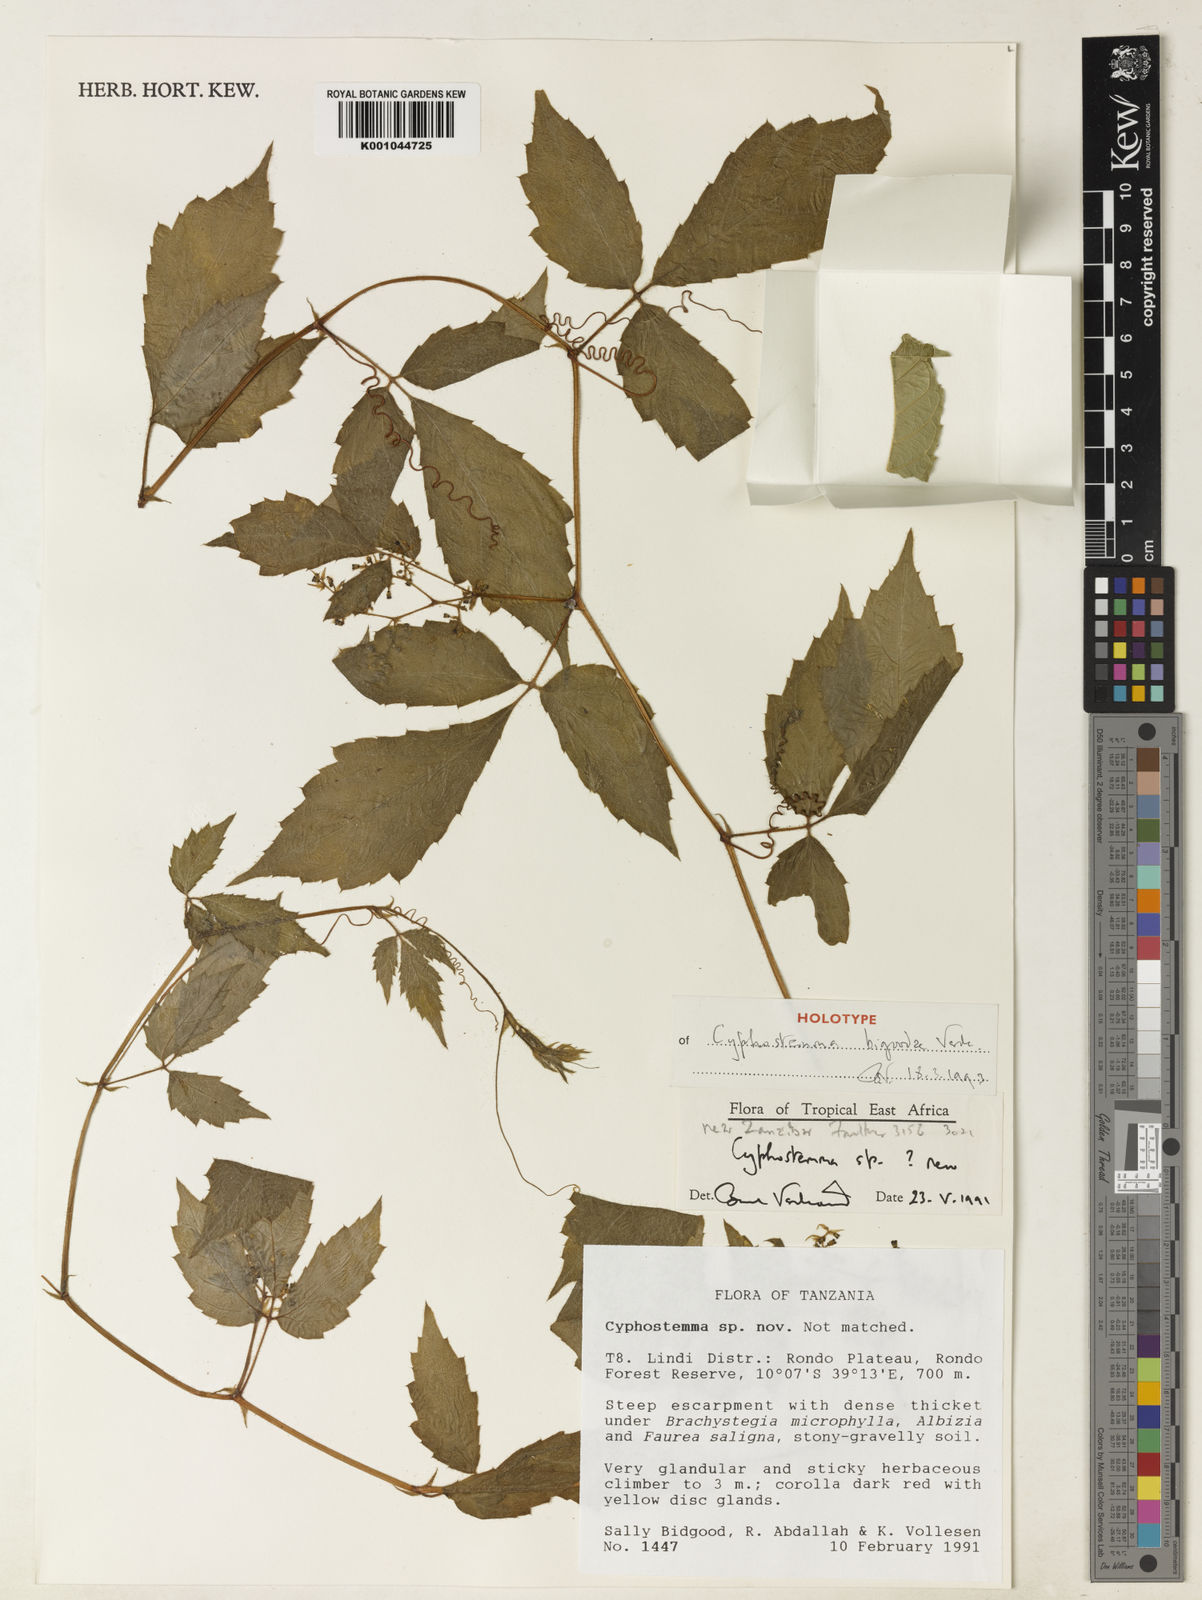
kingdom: Plantae
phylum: Tracheophyta
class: Magnoliopsida
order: Vitales
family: Vitaceae
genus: Cyphostemma
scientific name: Cyphostemma bidgoodiae
